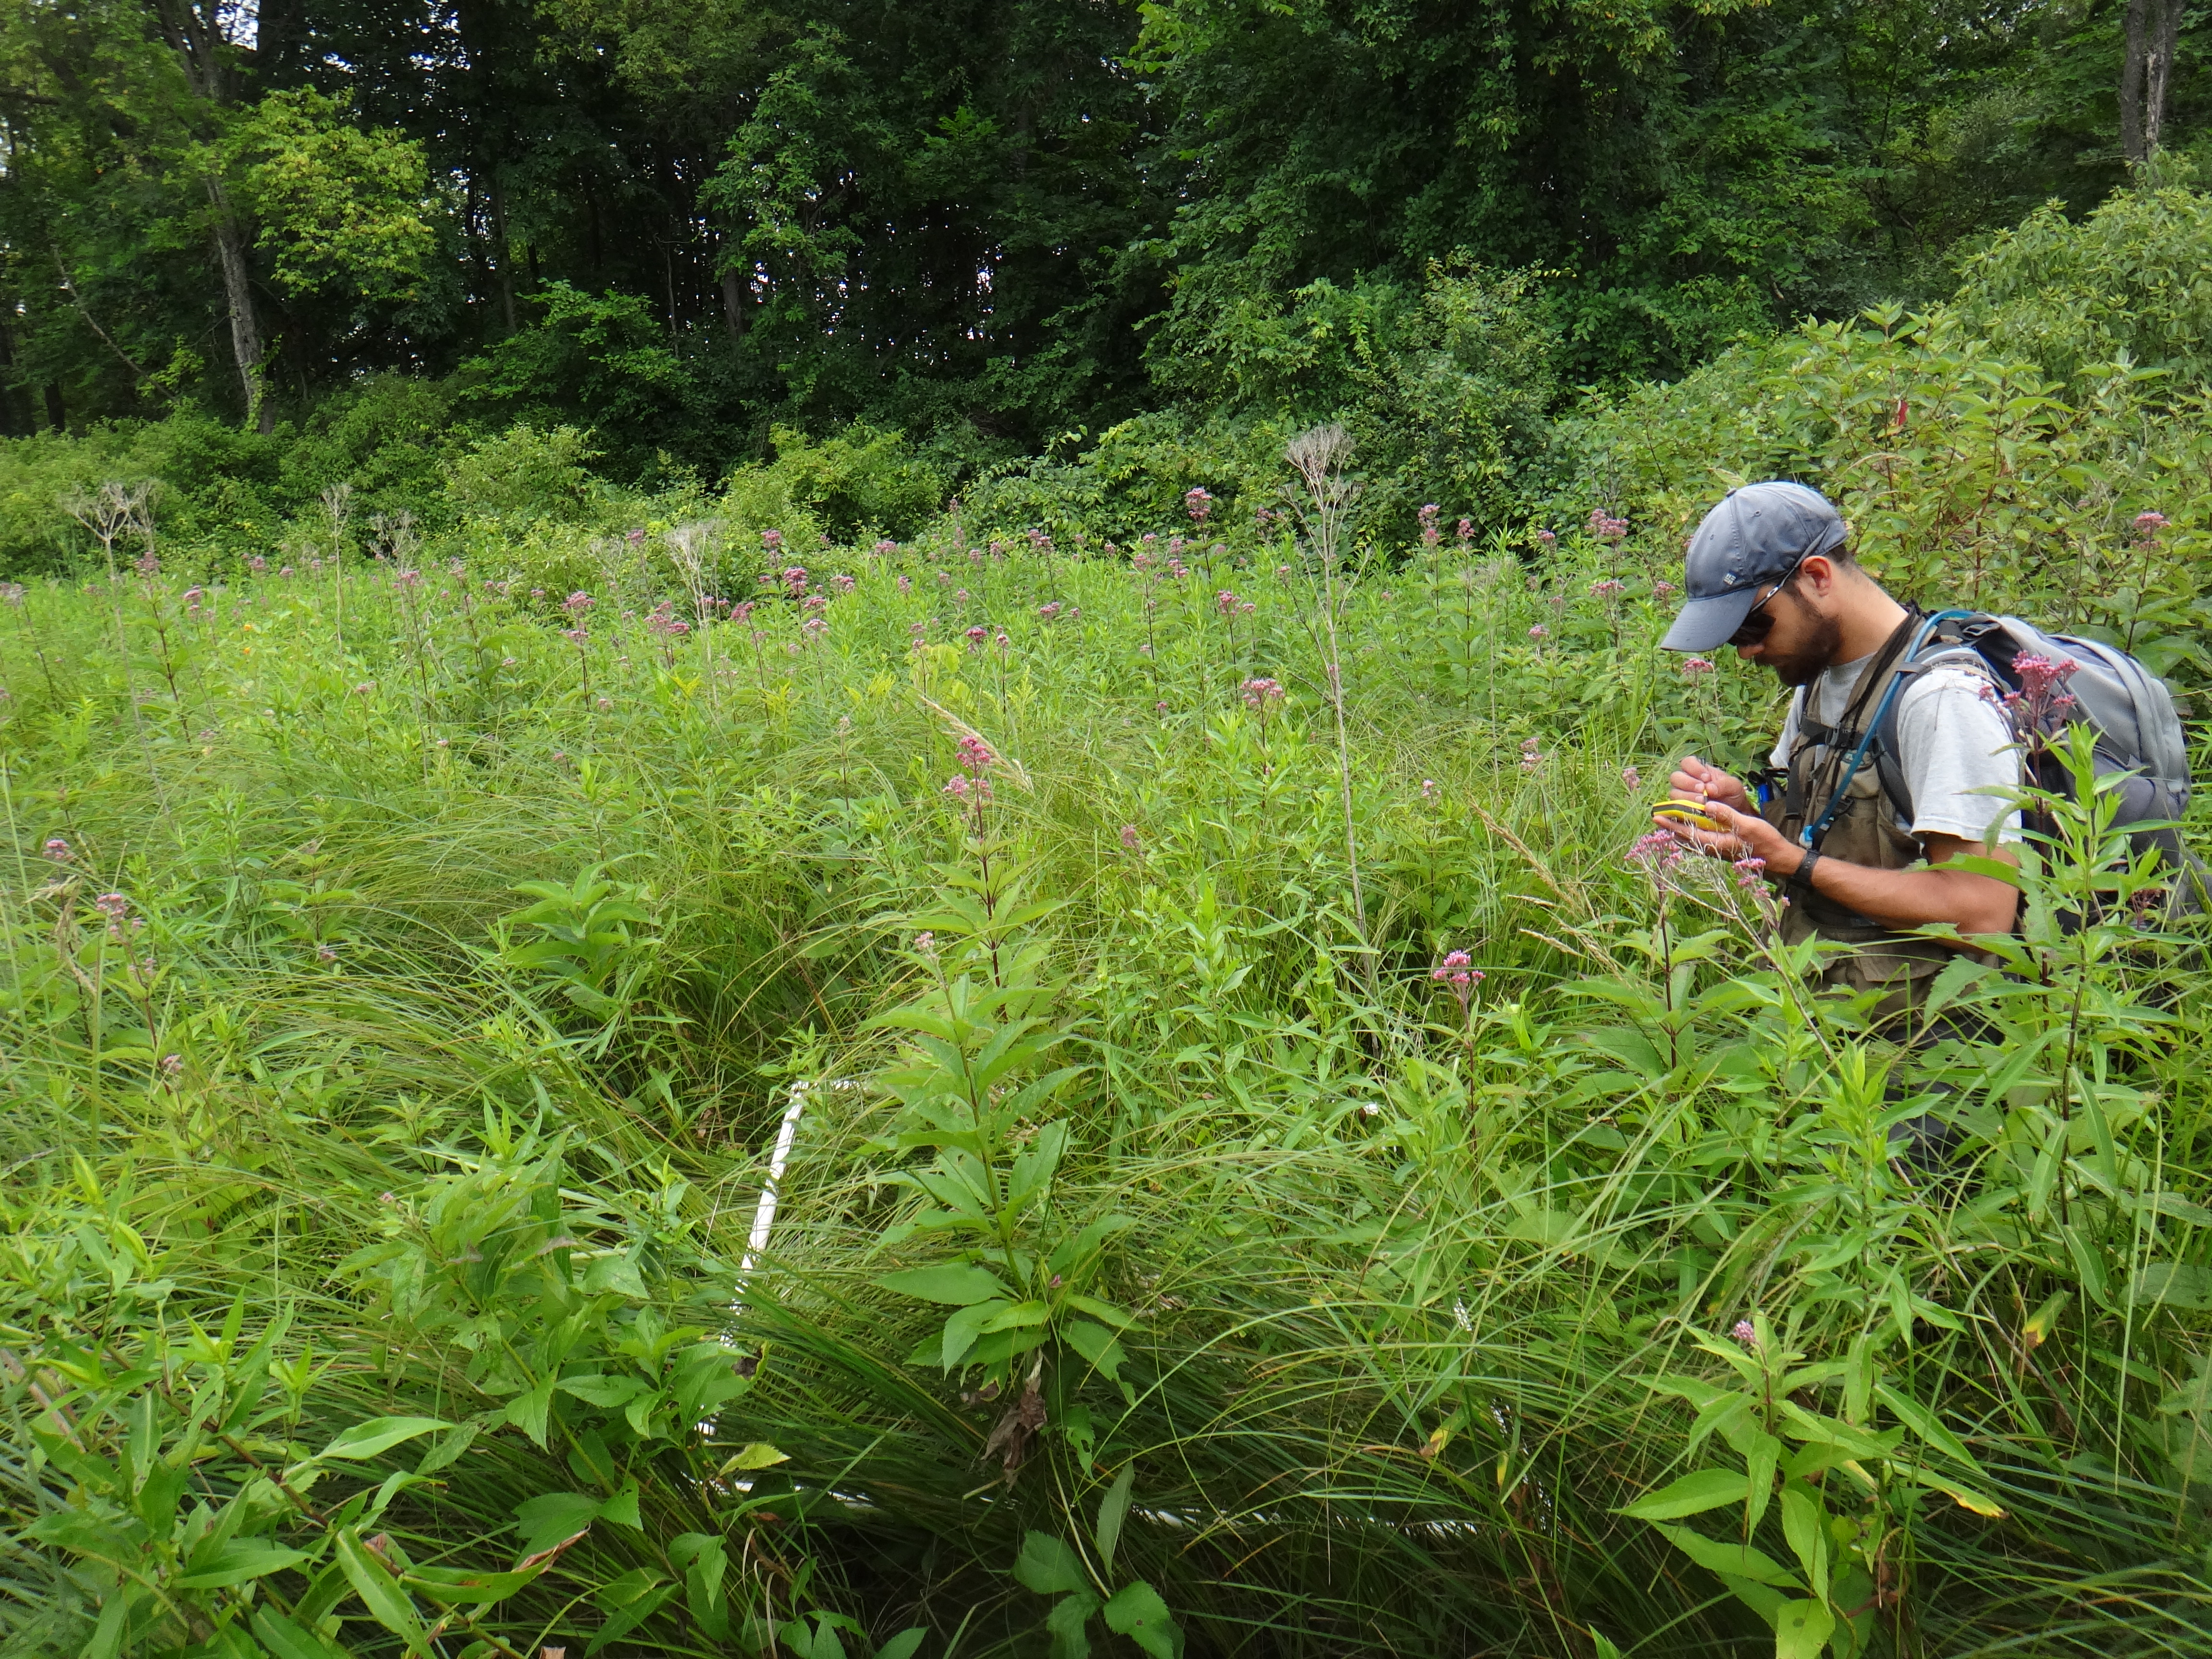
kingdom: Plantae
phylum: Tracheophyta
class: Polypodiopsida
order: Polypodiales
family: Onocleaceae
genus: Onoclea
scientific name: Onoclea sensibilis
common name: Sensitive fern
